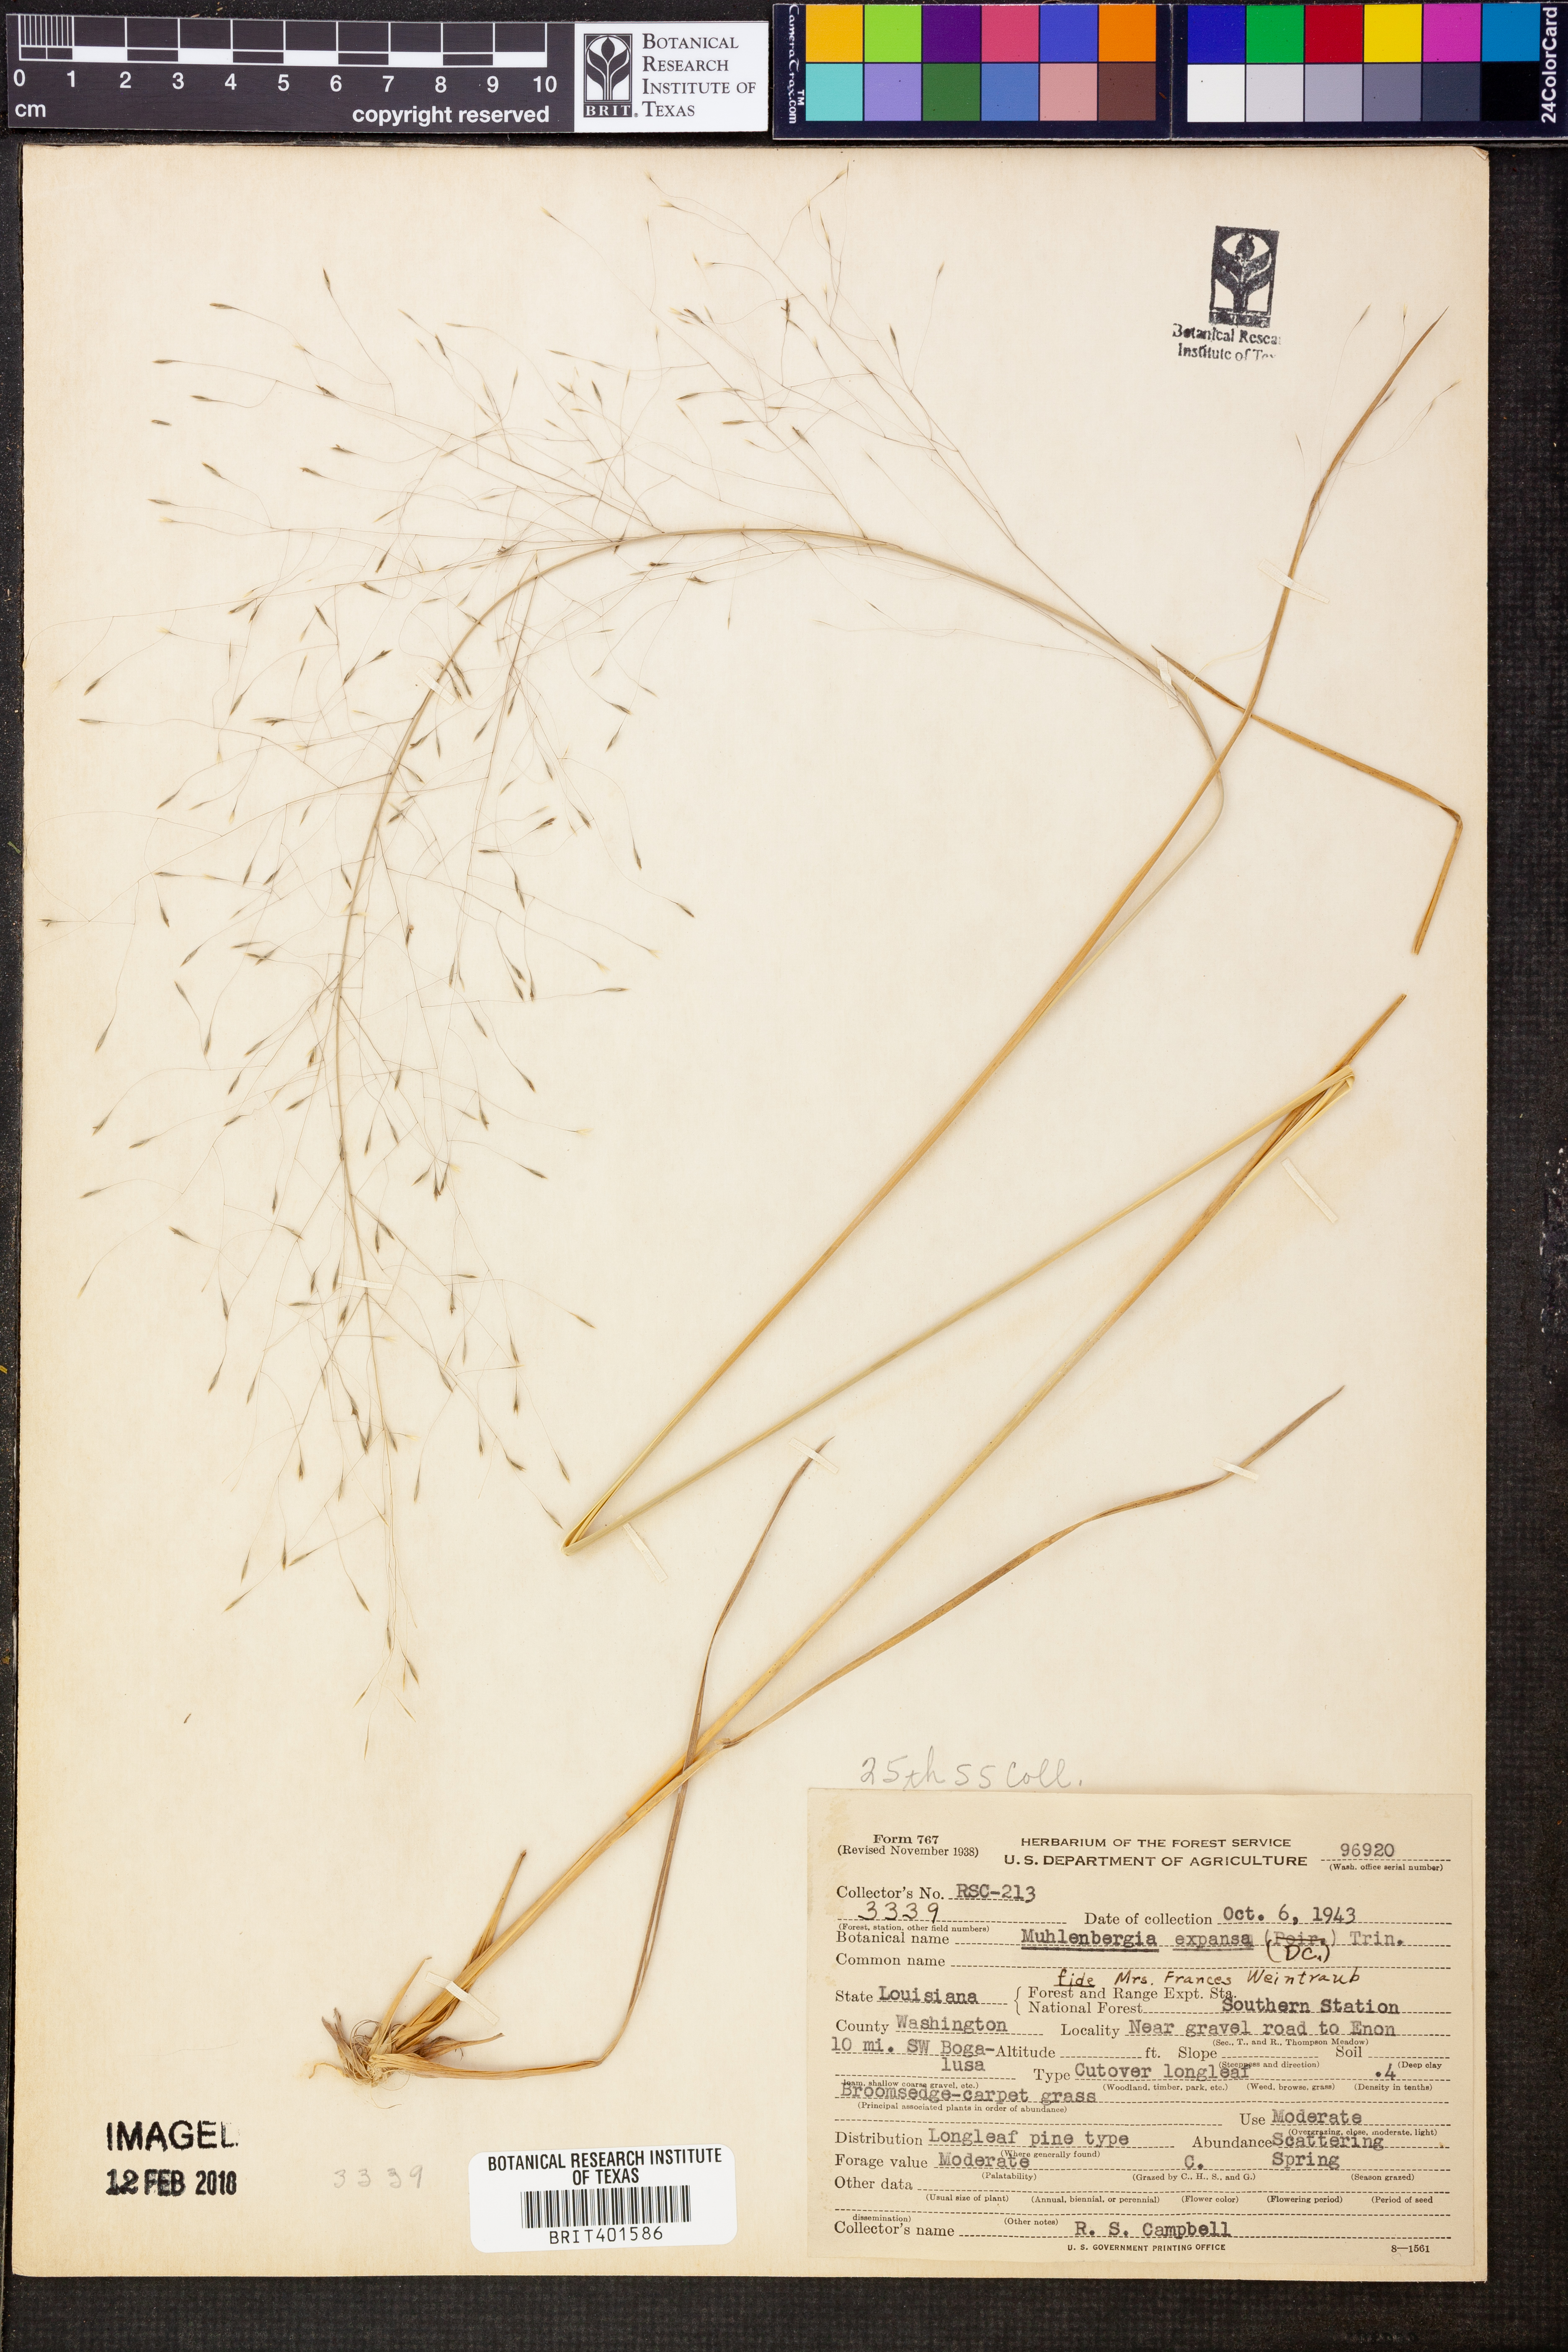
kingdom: Plantae
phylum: Tracheophyta
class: Liliopsida
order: Poales
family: Poaceae
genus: Muhlenbergia
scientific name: Muhlenbergia expansa
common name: Savannah hairgrass
